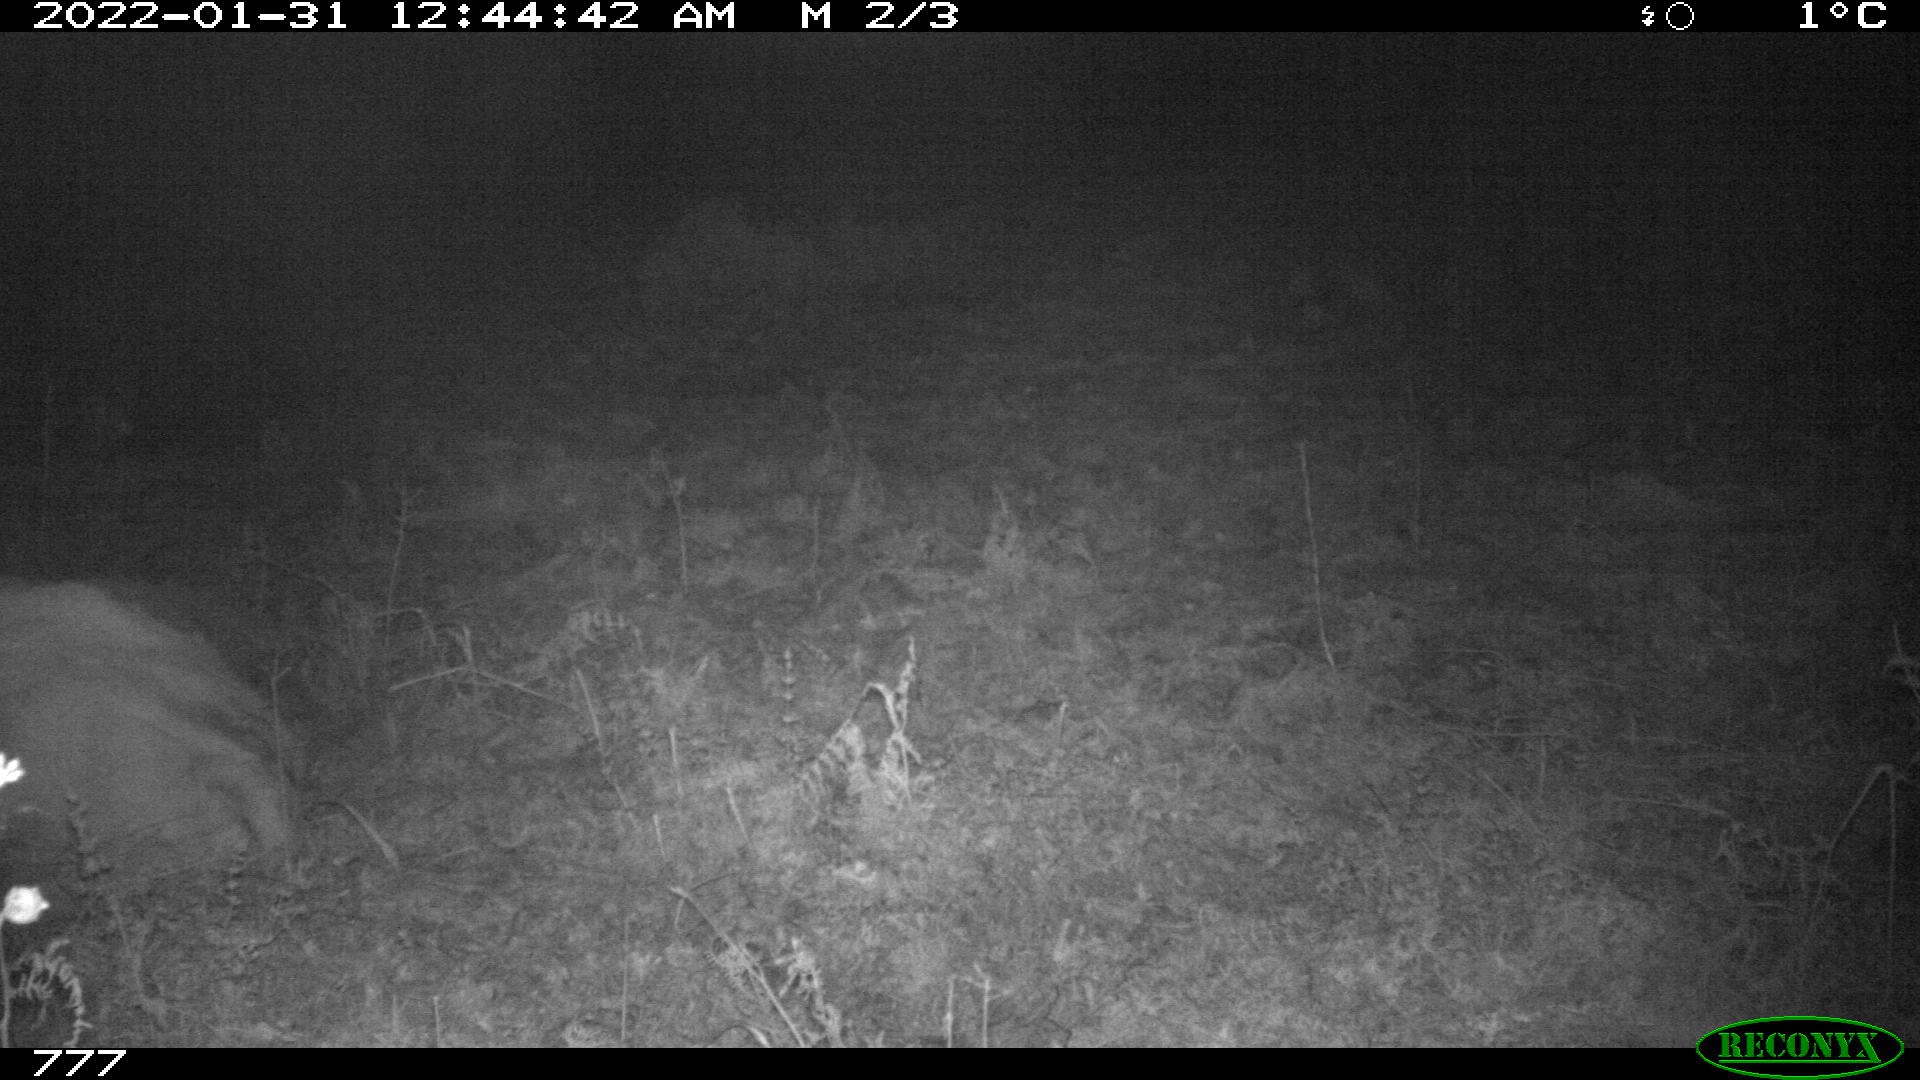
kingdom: Animalia
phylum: Chordata
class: Mammalia
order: Artiodactyla
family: Bovidae
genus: Bos
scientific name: Bos taurus
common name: Domesticated cattle
